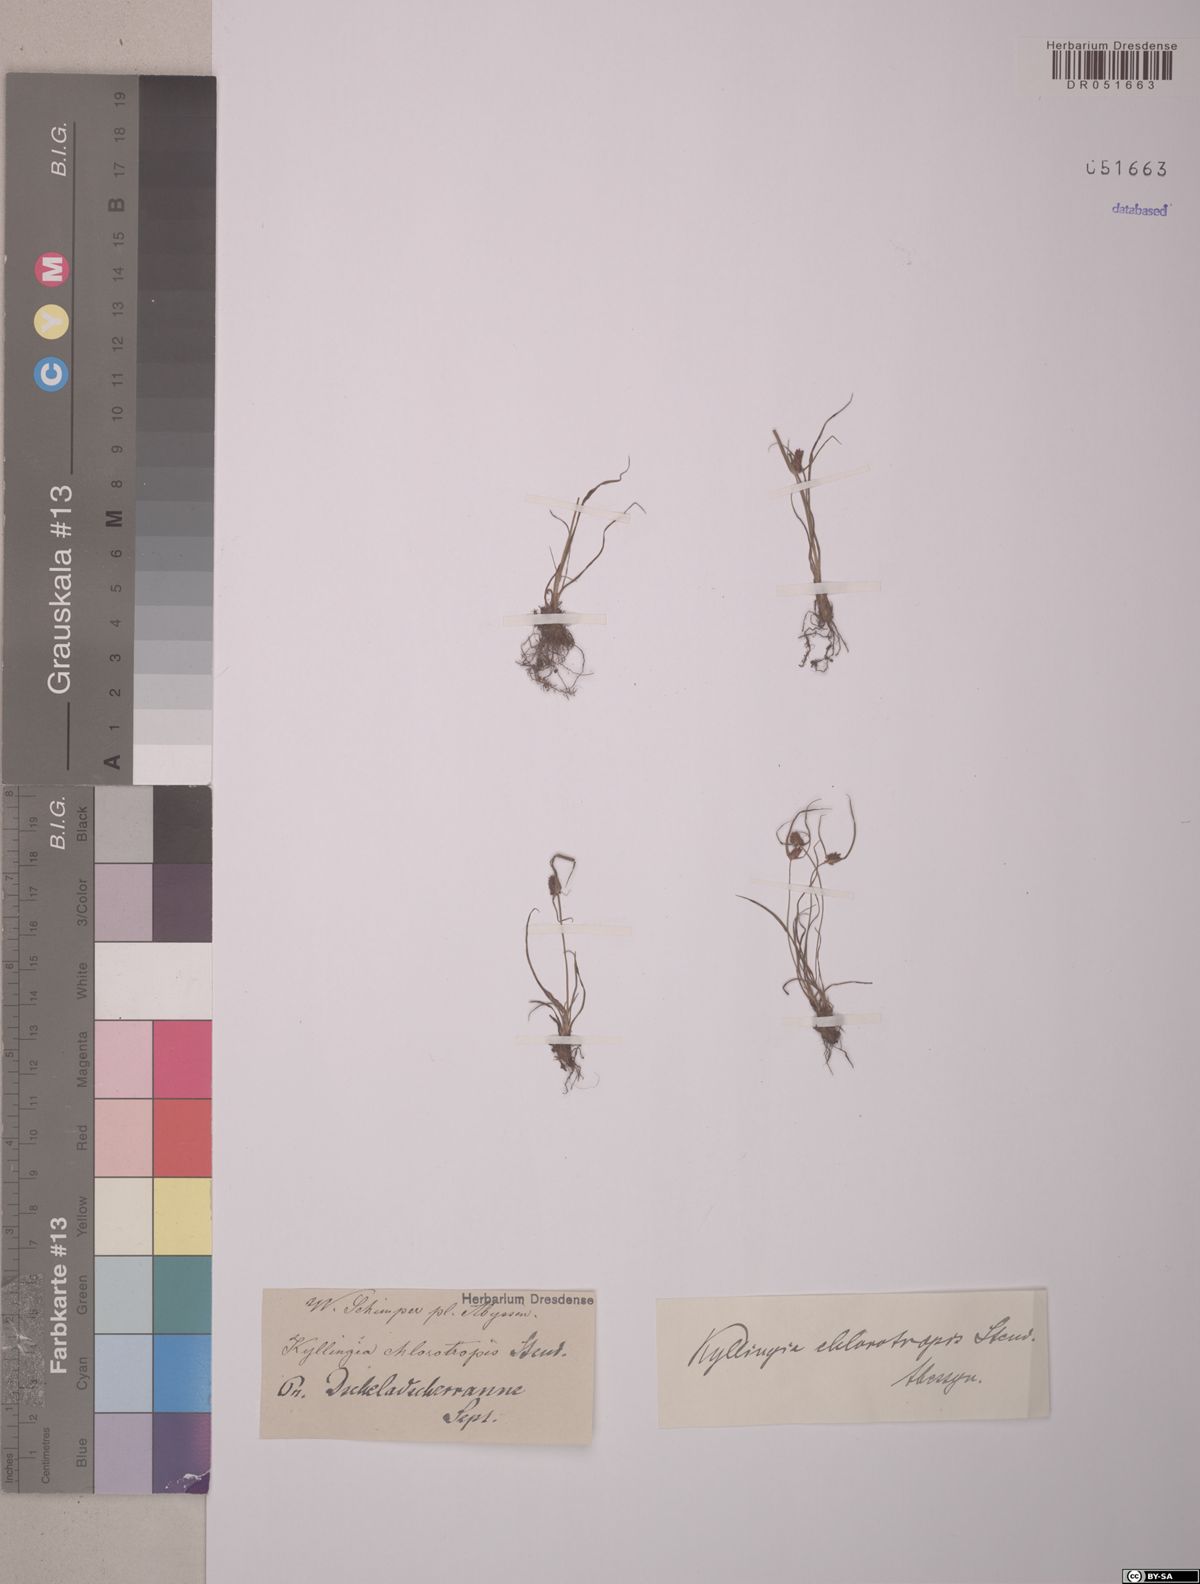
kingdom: Plantae
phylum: Tracheophyta
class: Liliopsida
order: Poales
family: Cyperaceae
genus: Cyperus
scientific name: Cyperus chlorotropis
